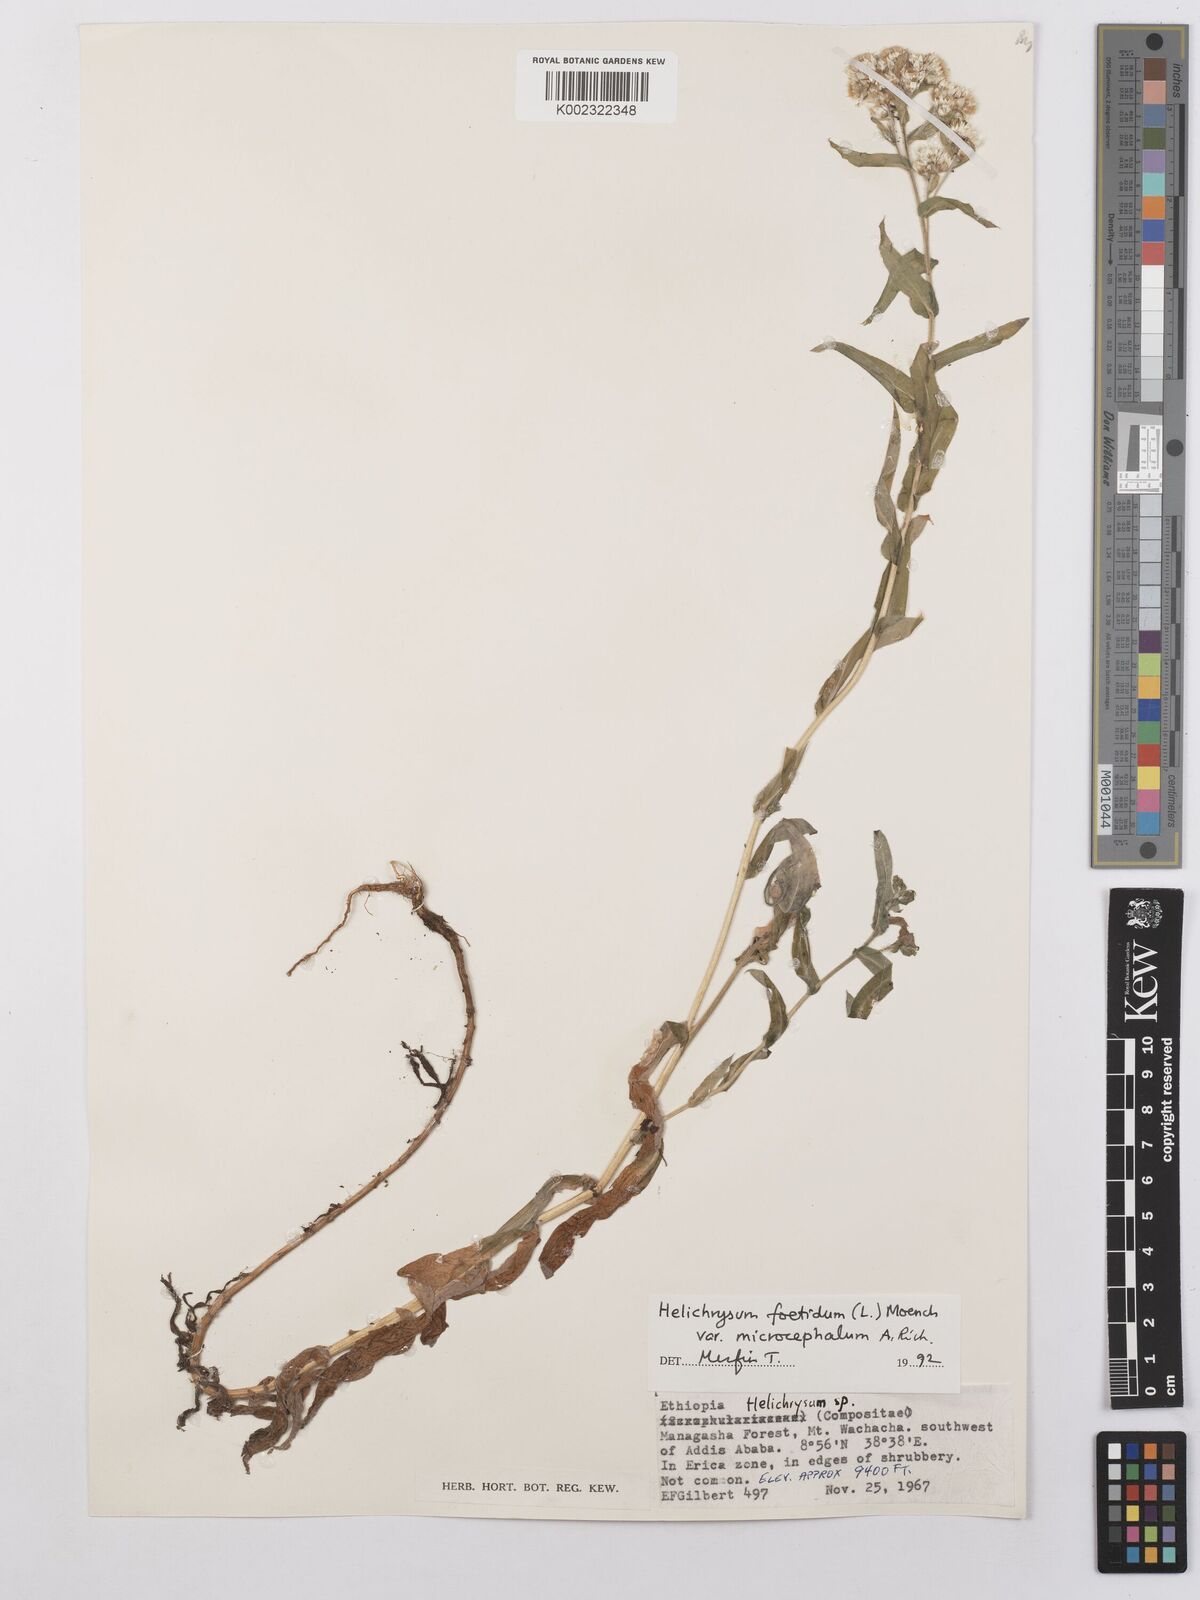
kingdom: Plantae
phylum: Tracheophyta
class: Magnoliopsida
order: Asterales
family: Asteraceae
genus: Helichrysum
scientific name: Helichrysum foetidum
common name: Stinking everlasting
